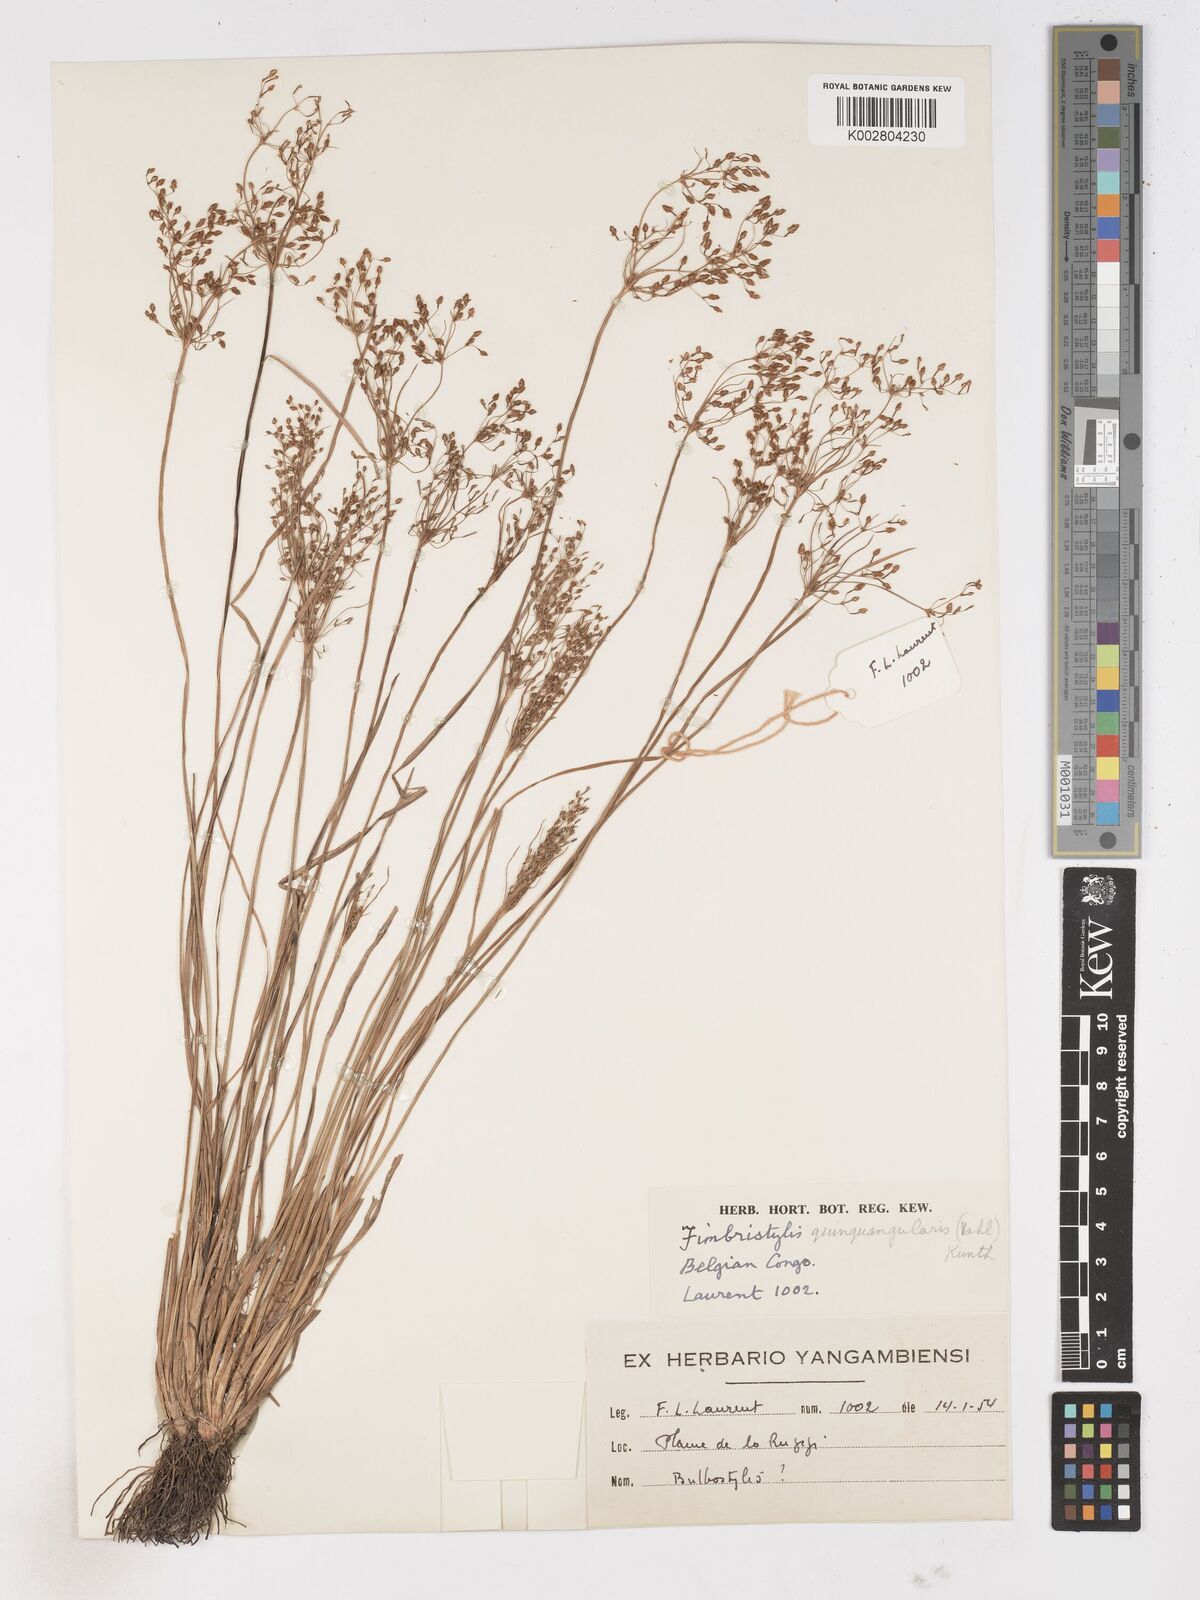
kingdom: Plantae
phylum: Tracheophyta
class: Liliopsida
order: Poales
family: Cyperaceae
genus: Fimbristylis
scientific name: Fimbristylis quinquangularis
